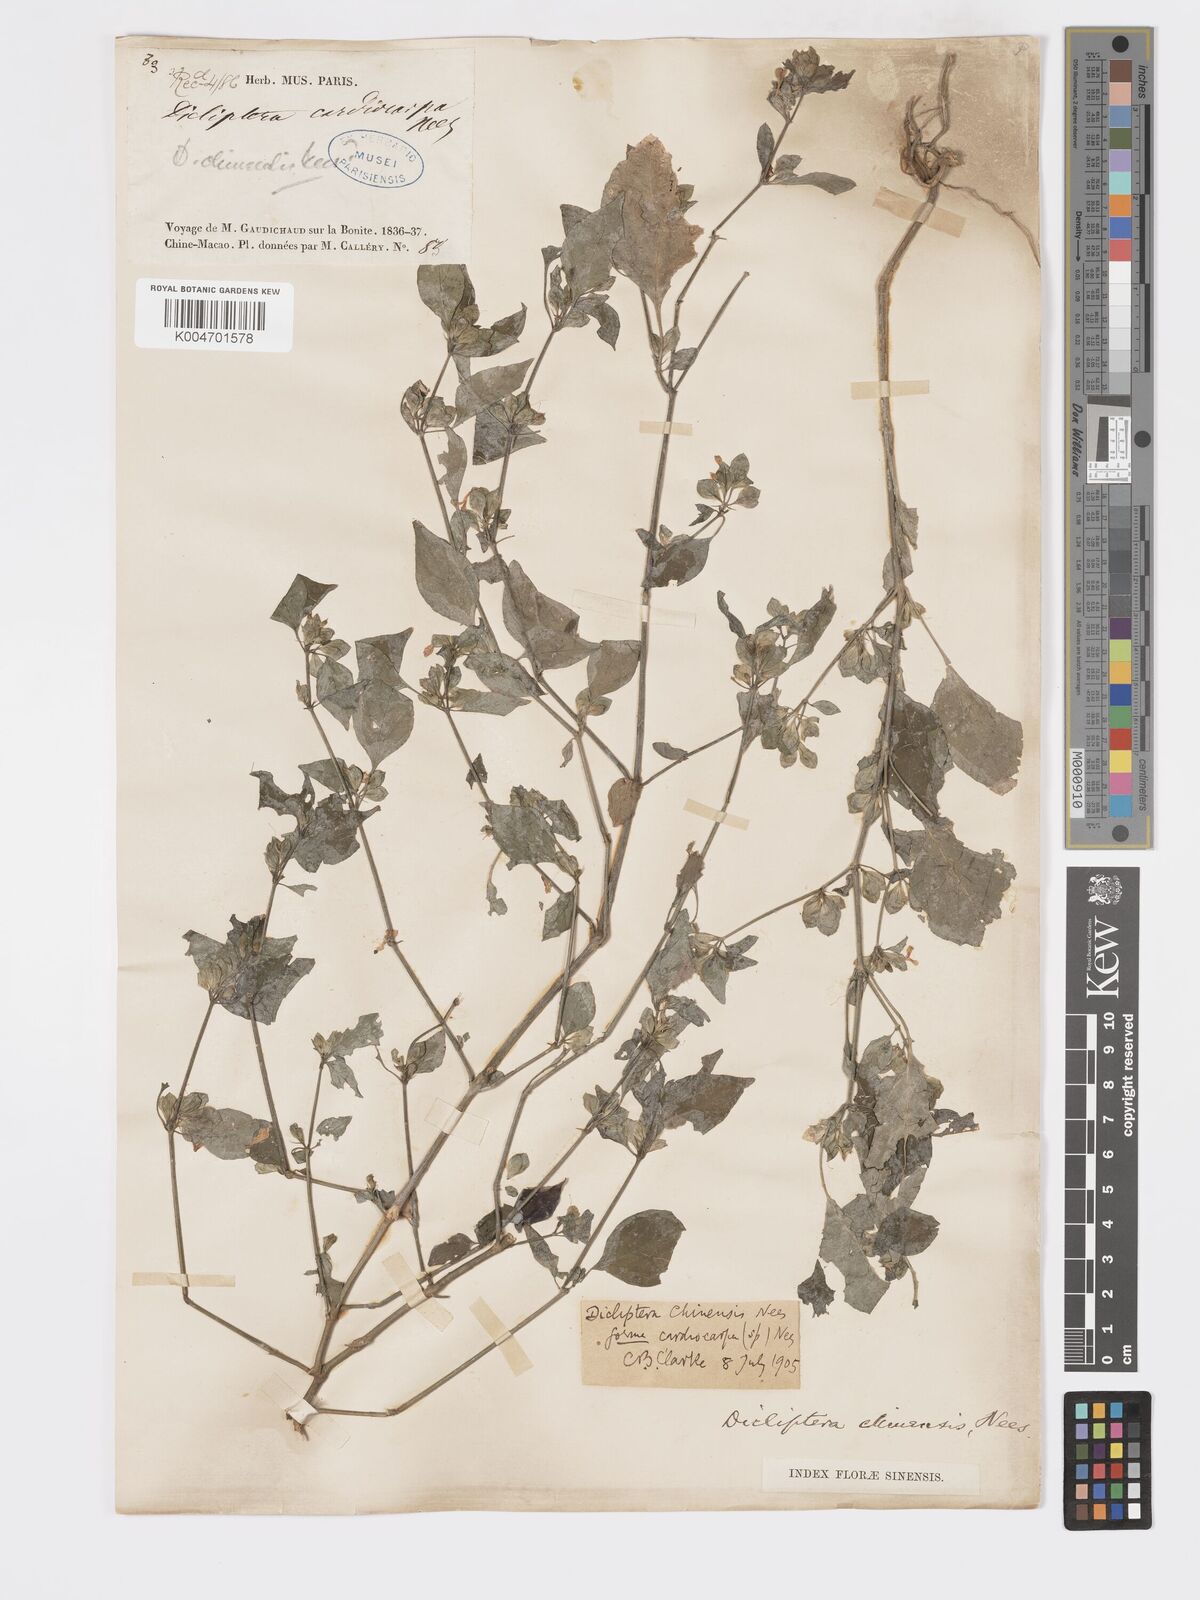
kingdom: Plantae
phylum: Tracheophyta
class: Magnoliopsida
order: Lamiales
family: Acanthaceae
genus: Dicliptera
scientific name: Dicliptera chinensis
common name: Chinese foldwing
